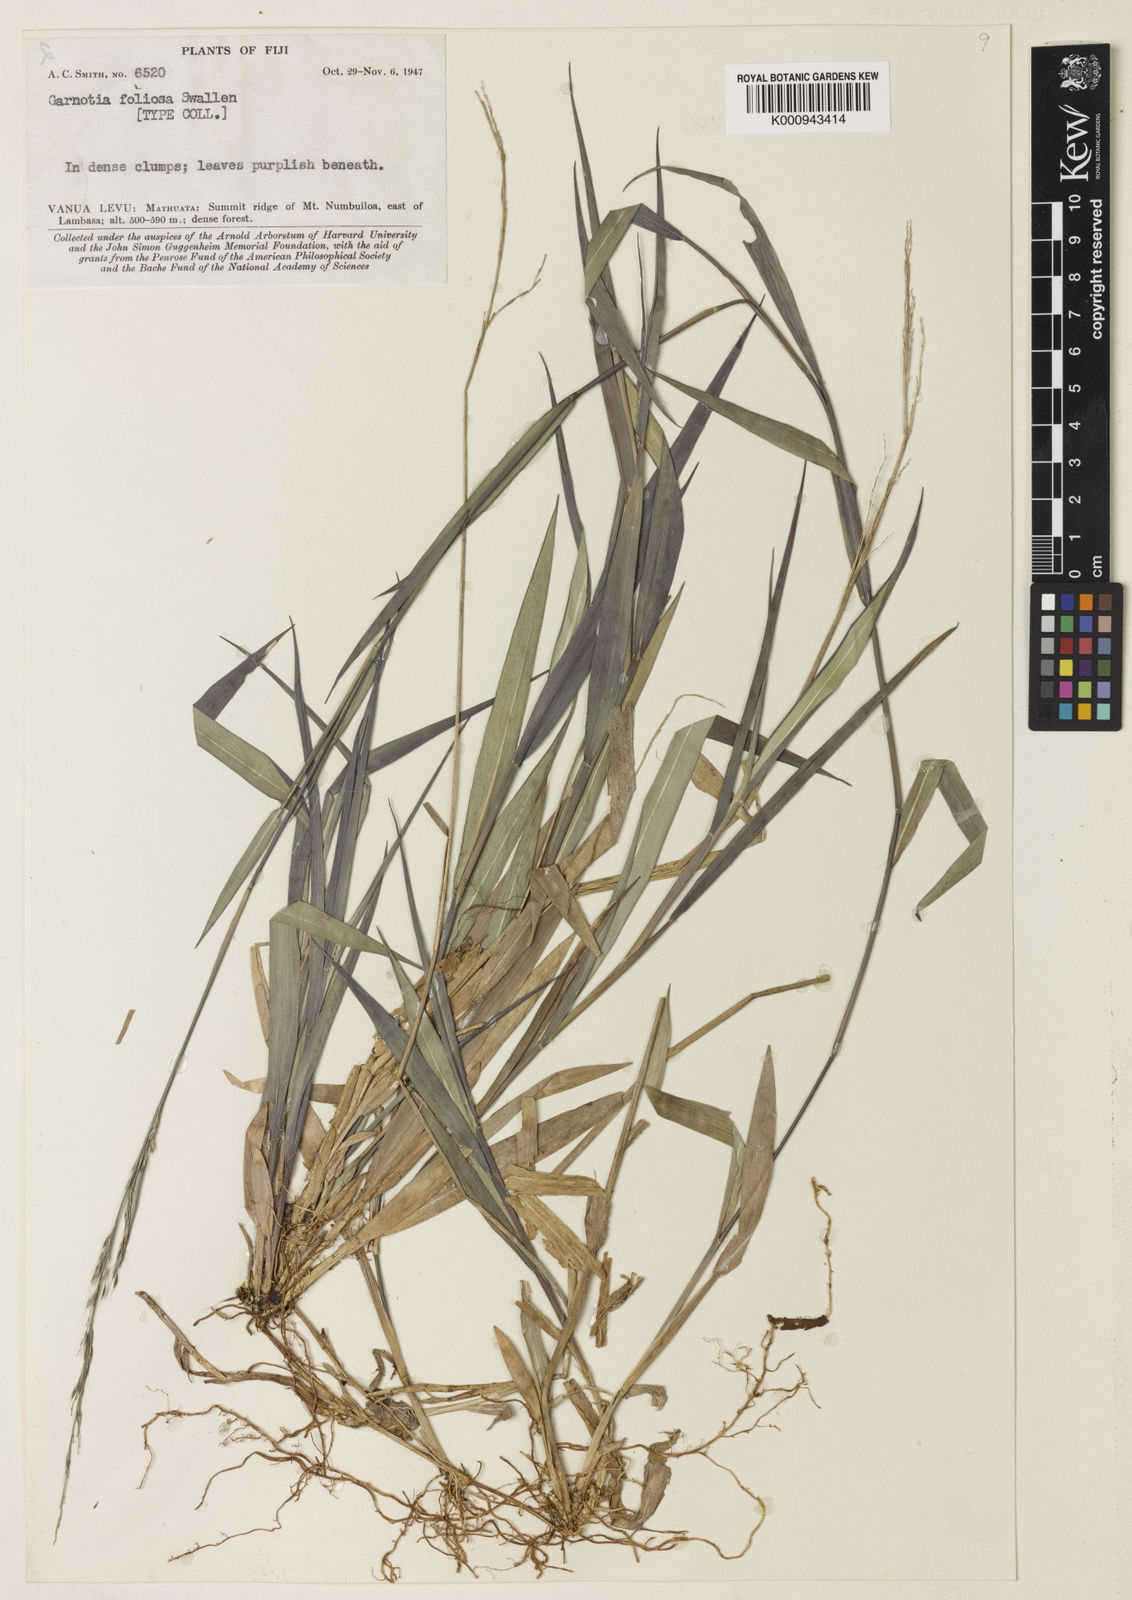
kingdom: Plantae
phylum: Tracheophyta
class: Liliopsida
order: Poales
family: Poaceae
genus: Garnotia
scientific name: Garnotia foliosa
